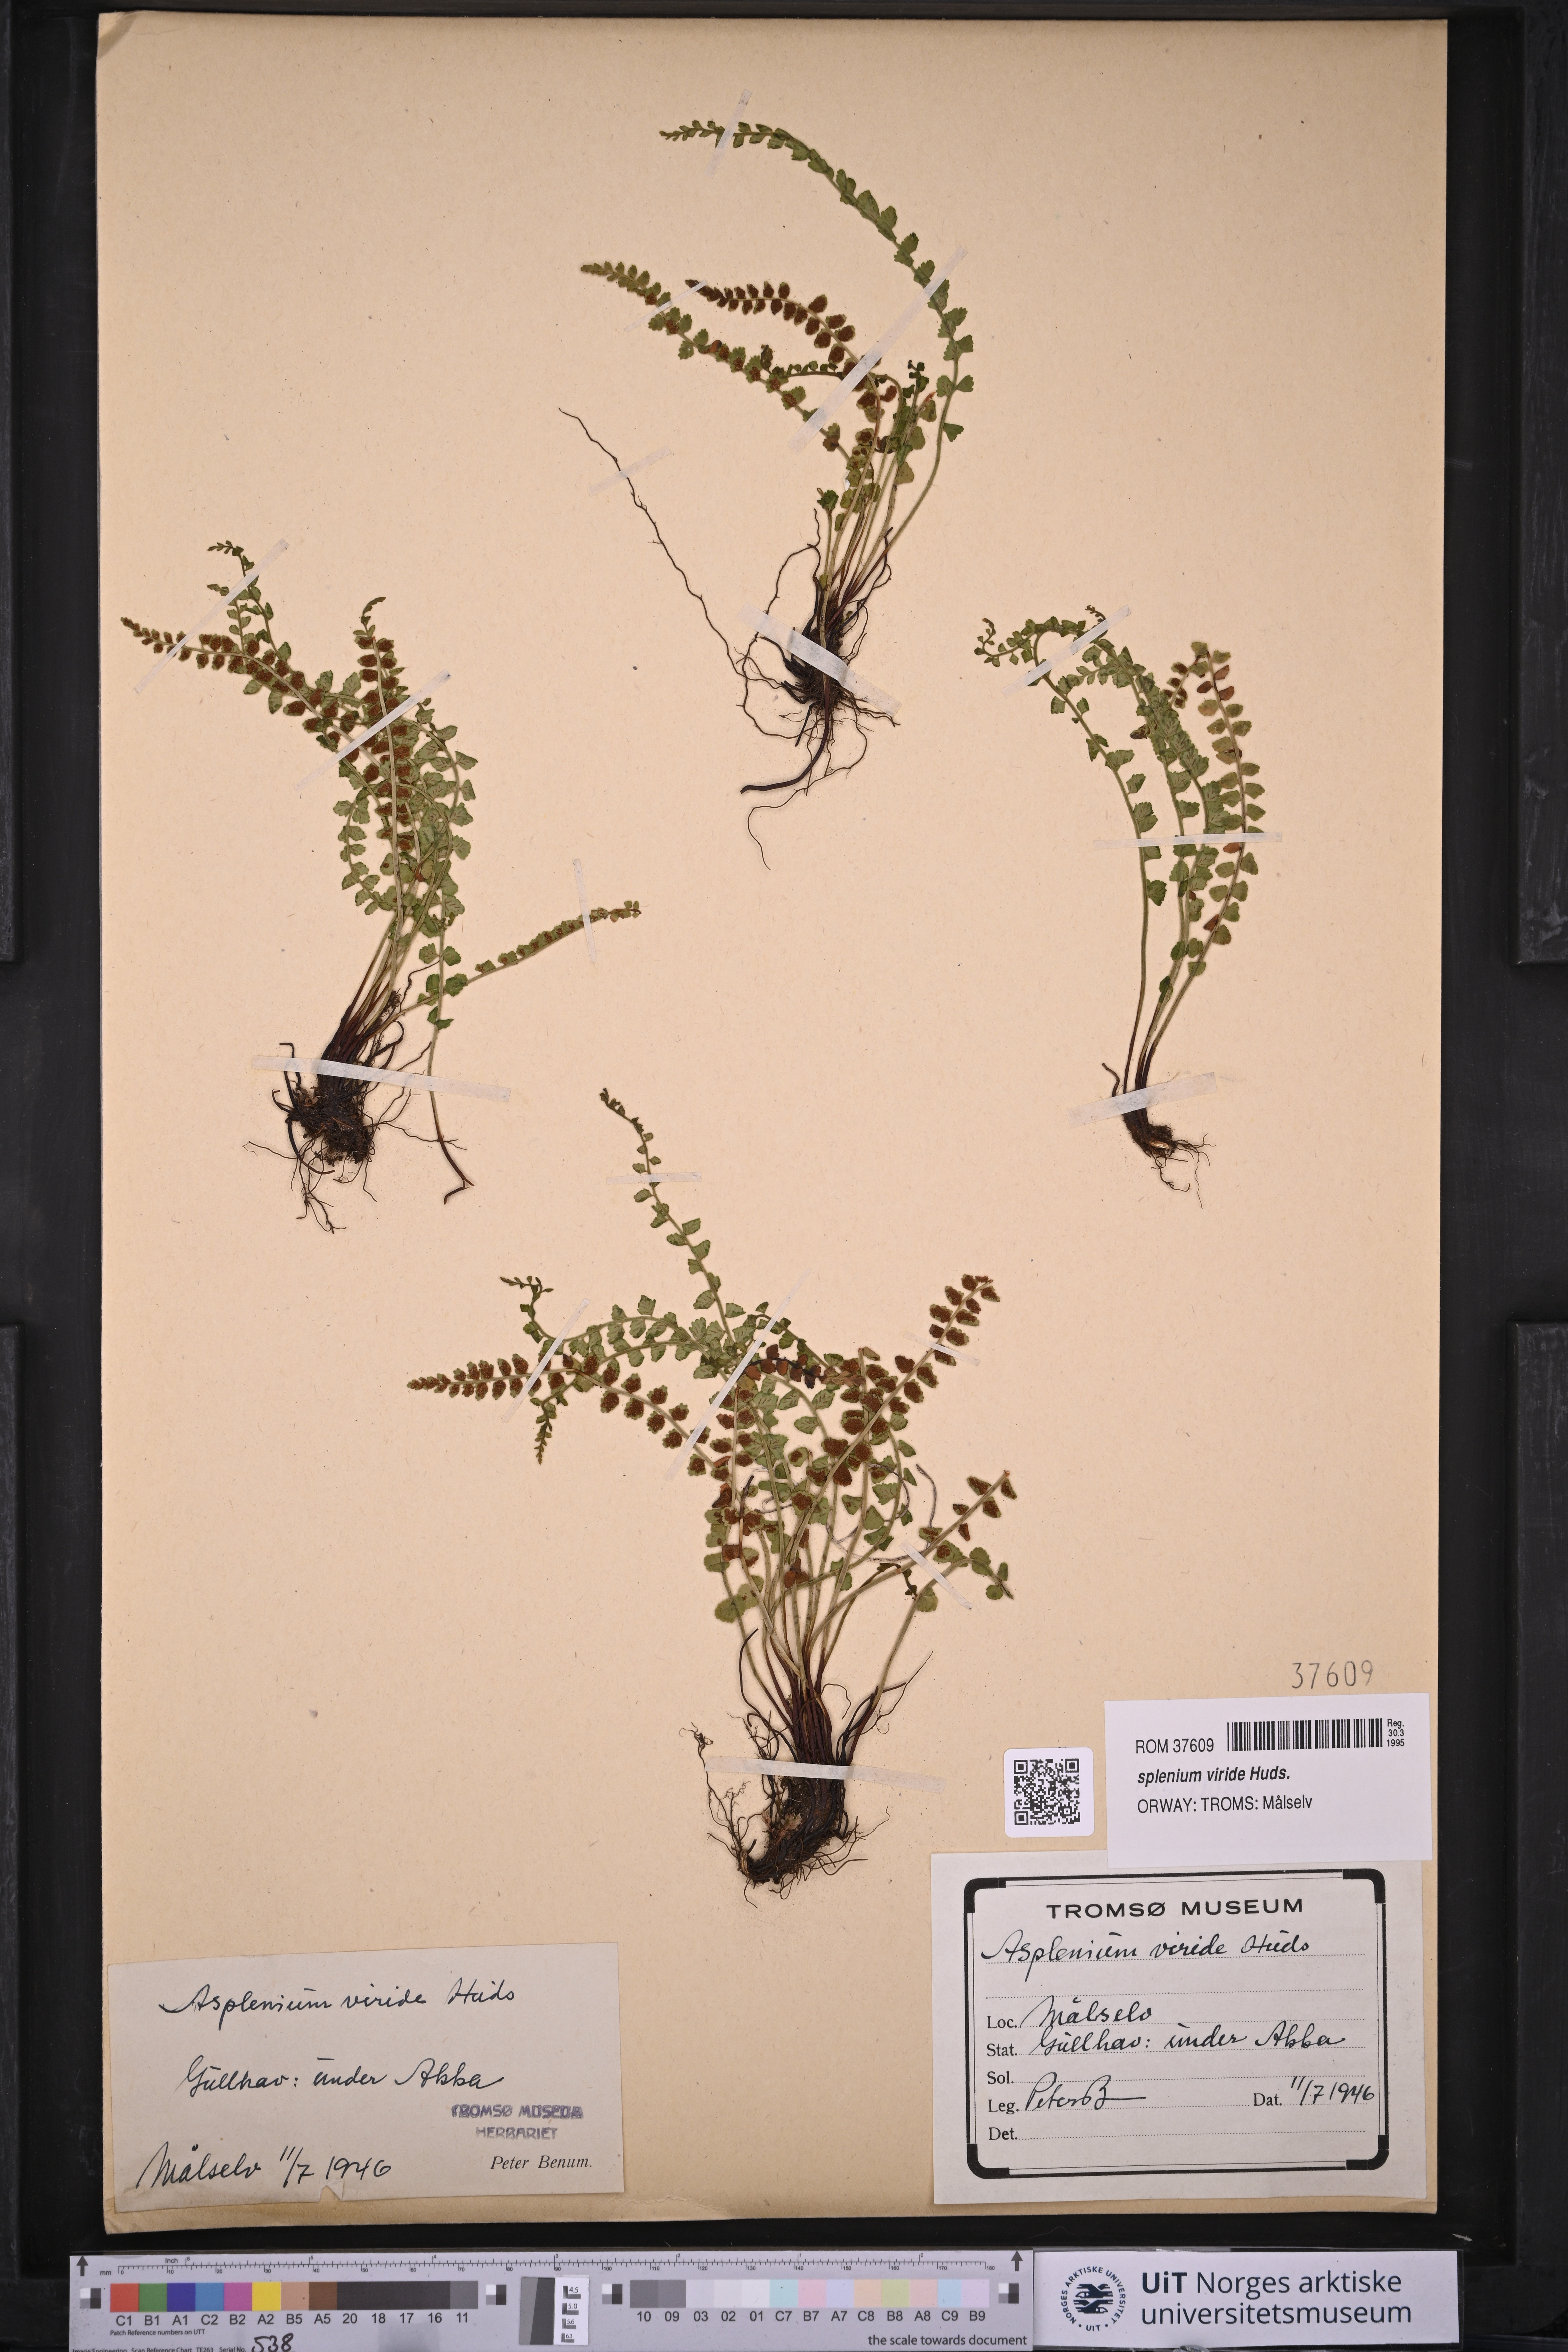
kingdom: Plantae
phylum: Tracheophyta
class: Polypodiopsida
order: Polypodiales
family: Aspleniaceae
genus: Asplenium
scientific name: Asplenium viride
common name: Green spleenwort
